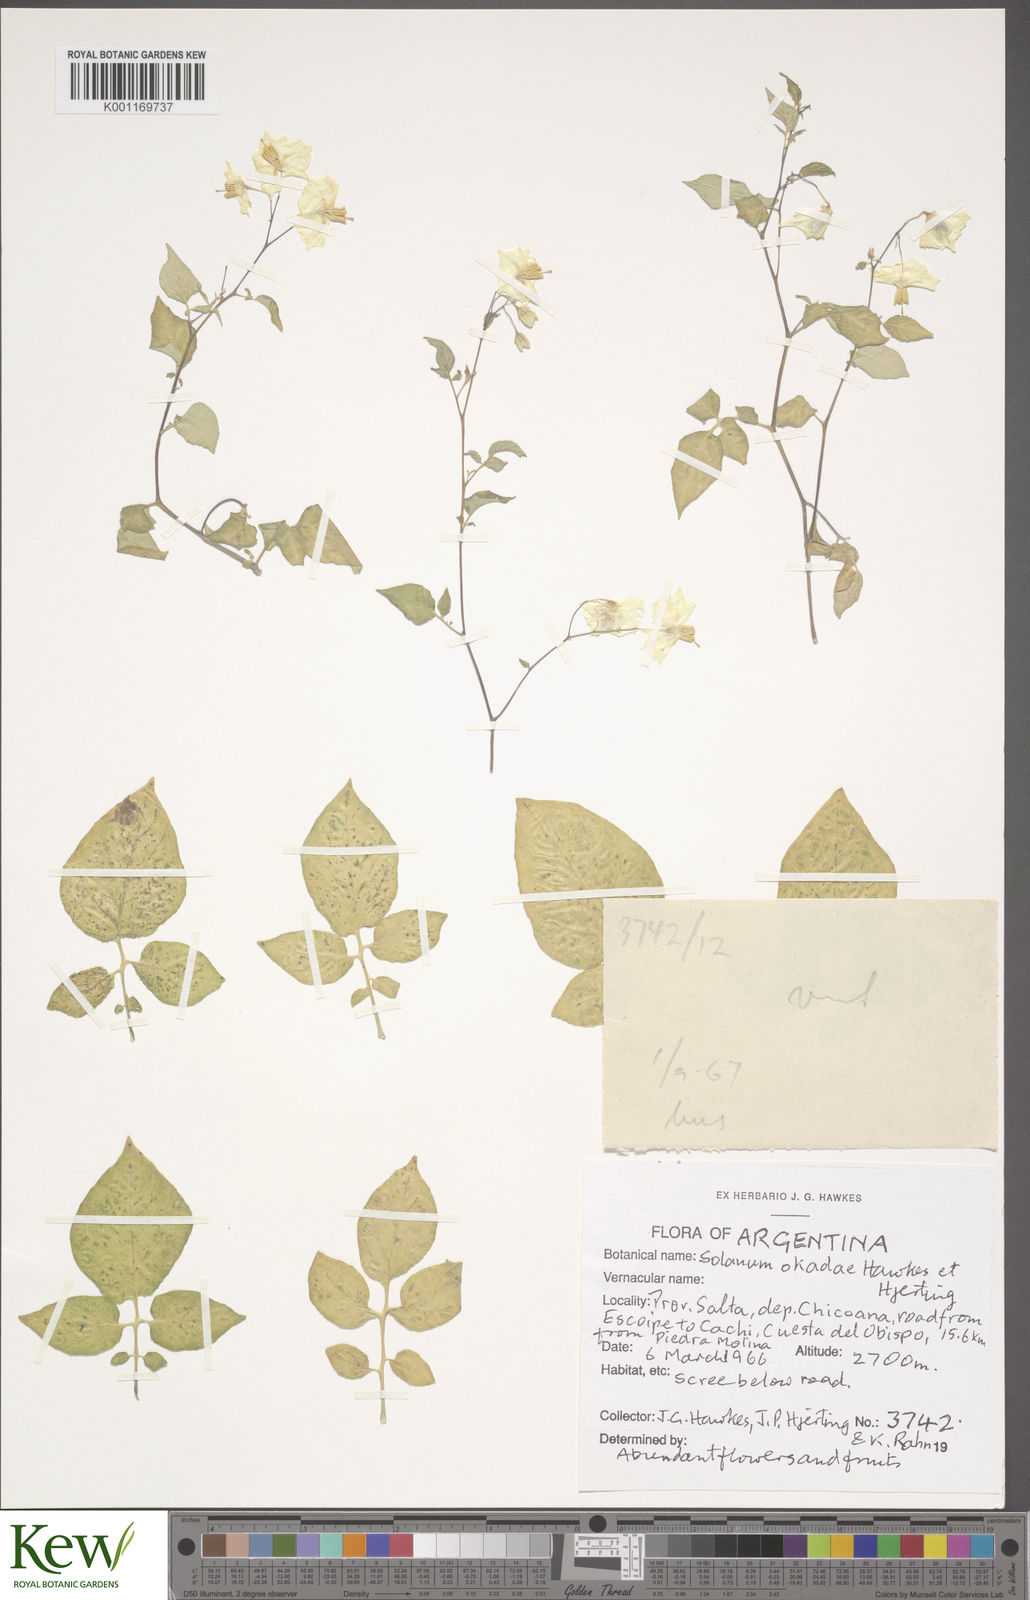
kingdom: Plantae
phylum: Tracheophyta
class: Magnoliopsida
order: Solanales
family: Solanaceae
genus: Solanum
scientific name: Solanum okadae
